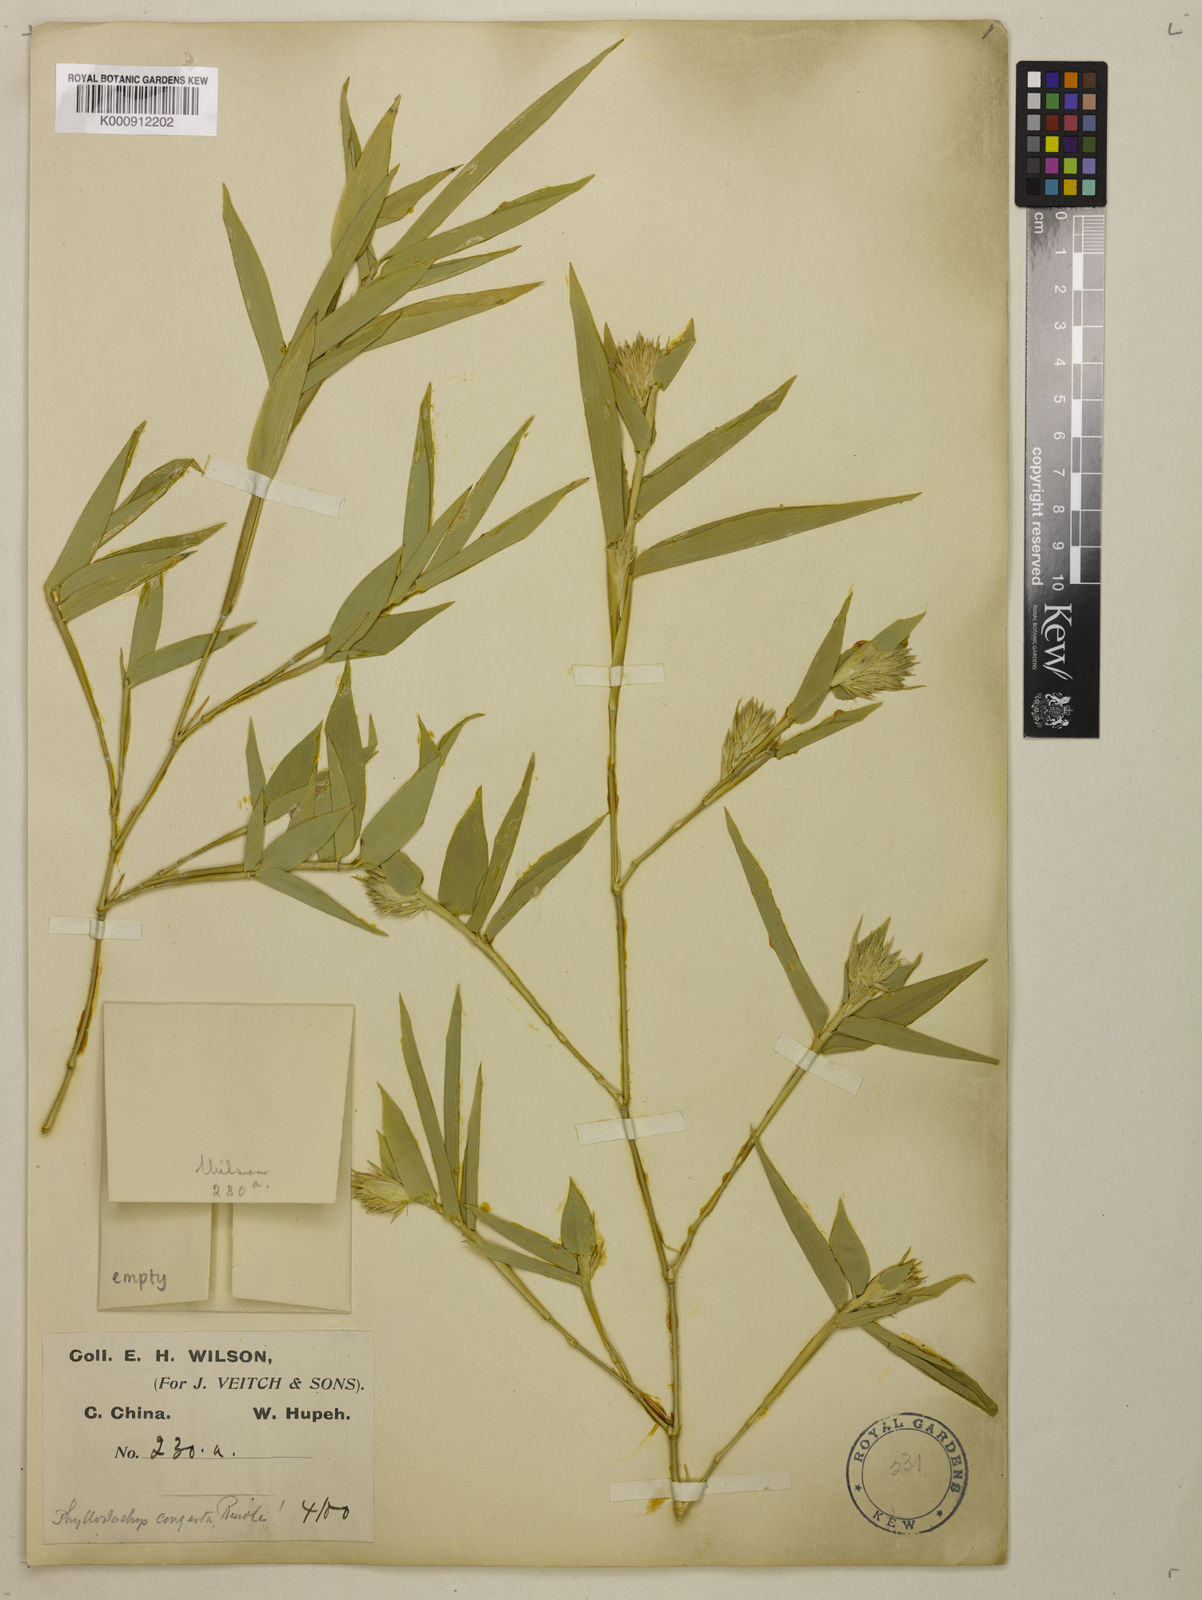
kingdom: Plantae
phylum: Tracheophyta
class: Liliopsida
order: Poales
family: Poaceae
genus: Phyllostachys
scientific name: Phyllostachys heteroclada
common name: Fishscale bamboo
